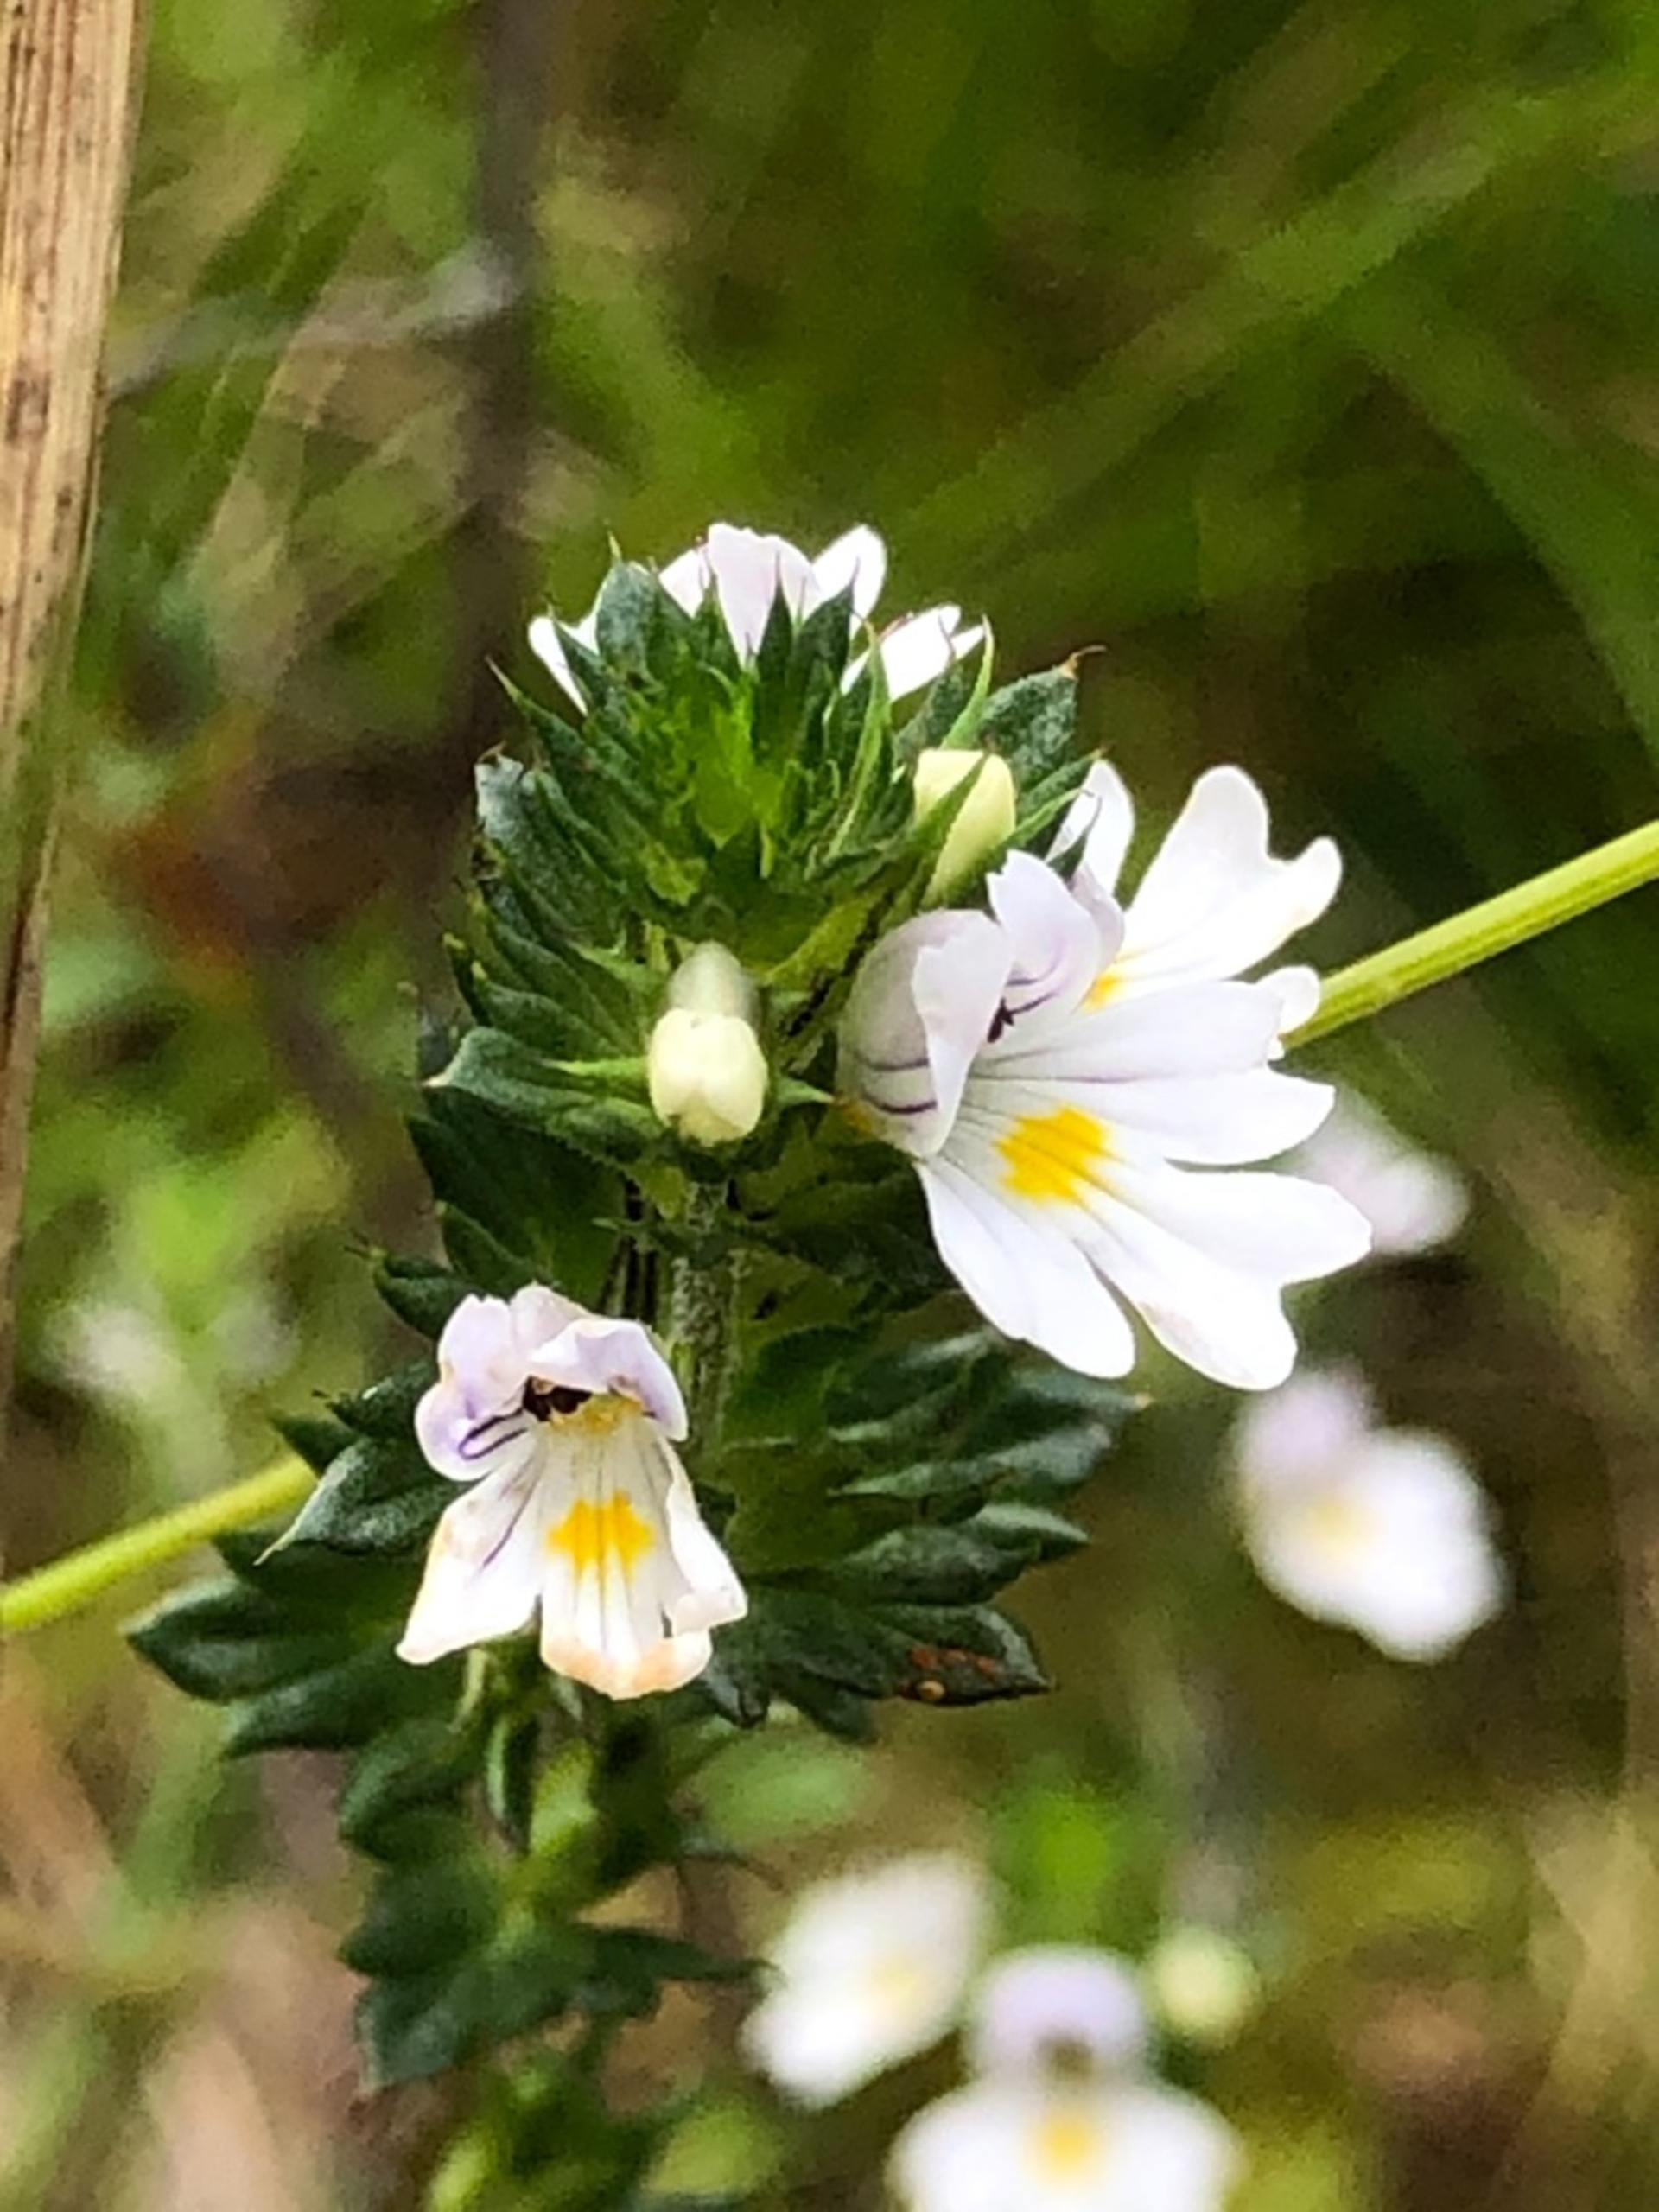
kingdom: Plantae
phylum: Tracheophyta
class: Magnoliopsida
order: Lamiales
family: Orobanchaceae
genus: Euphrasia
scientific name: Euphrasia stricta
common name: Spids øjentrøst
